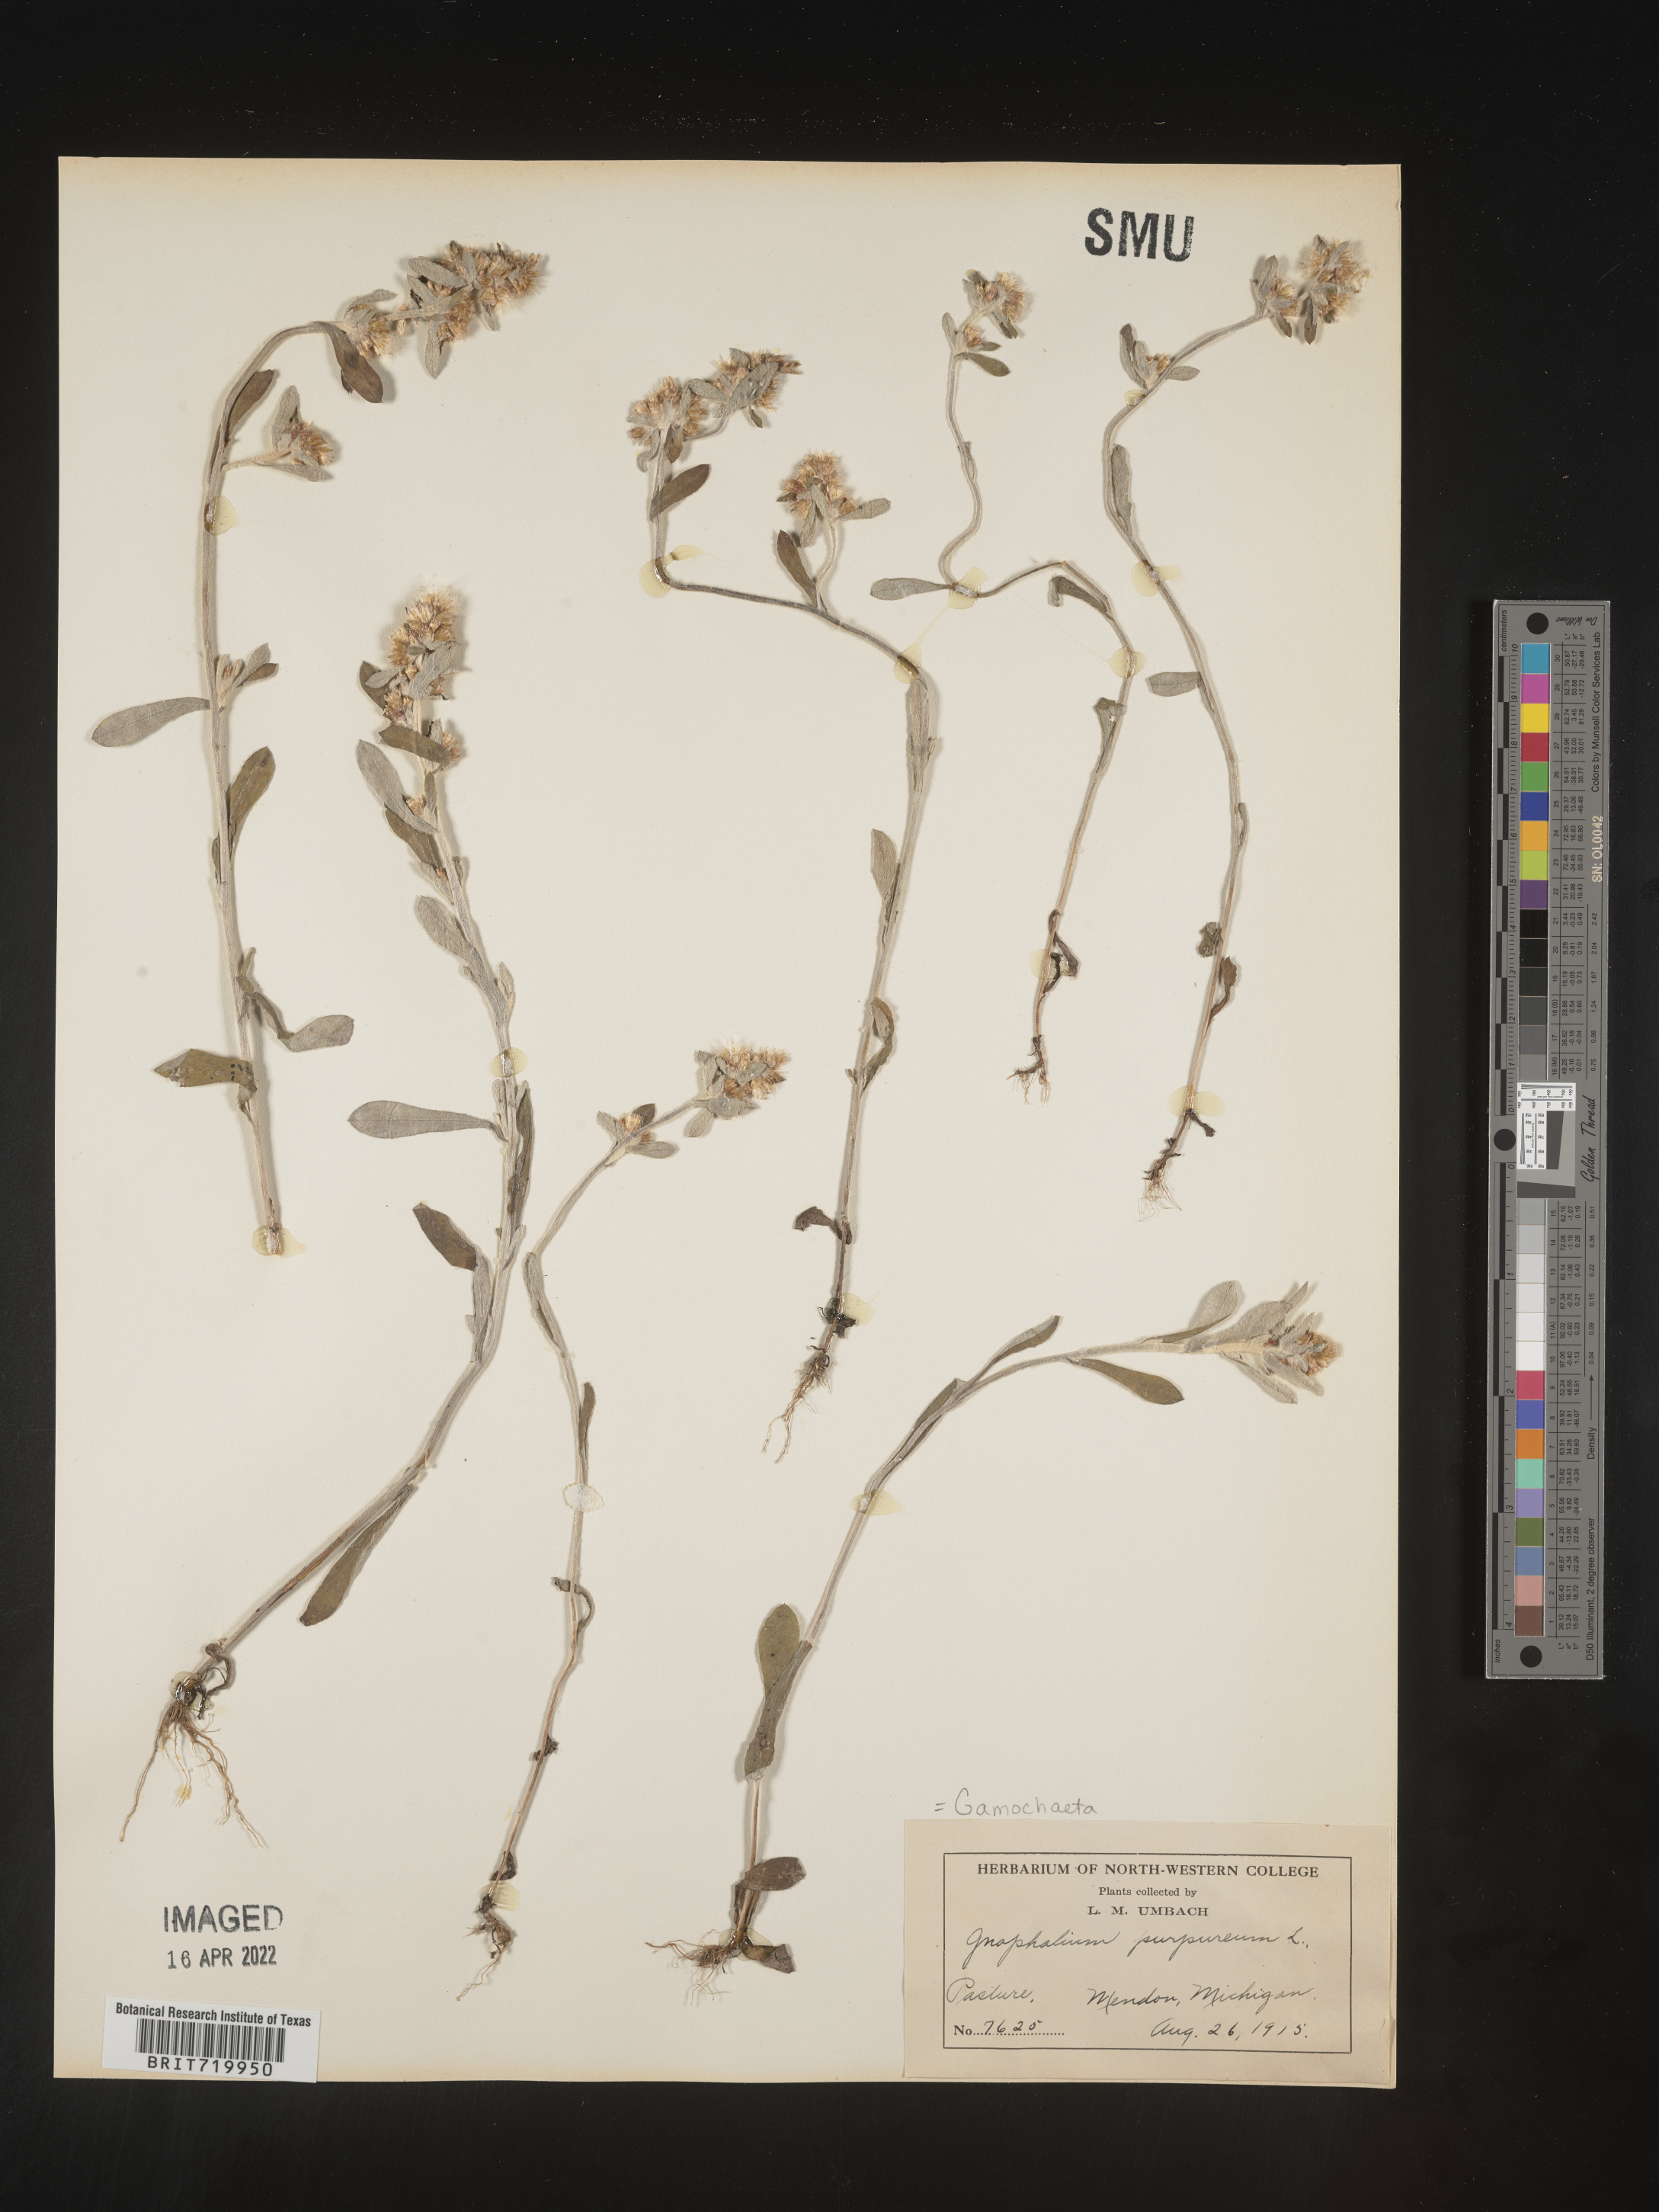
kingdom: Plantae
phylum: Tracheophyta
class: Magnoliopsida
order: Asterales
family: Asteraceae
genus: Gamochaeta
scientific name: Gamochaeta purpurea
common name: Purple cudweed
